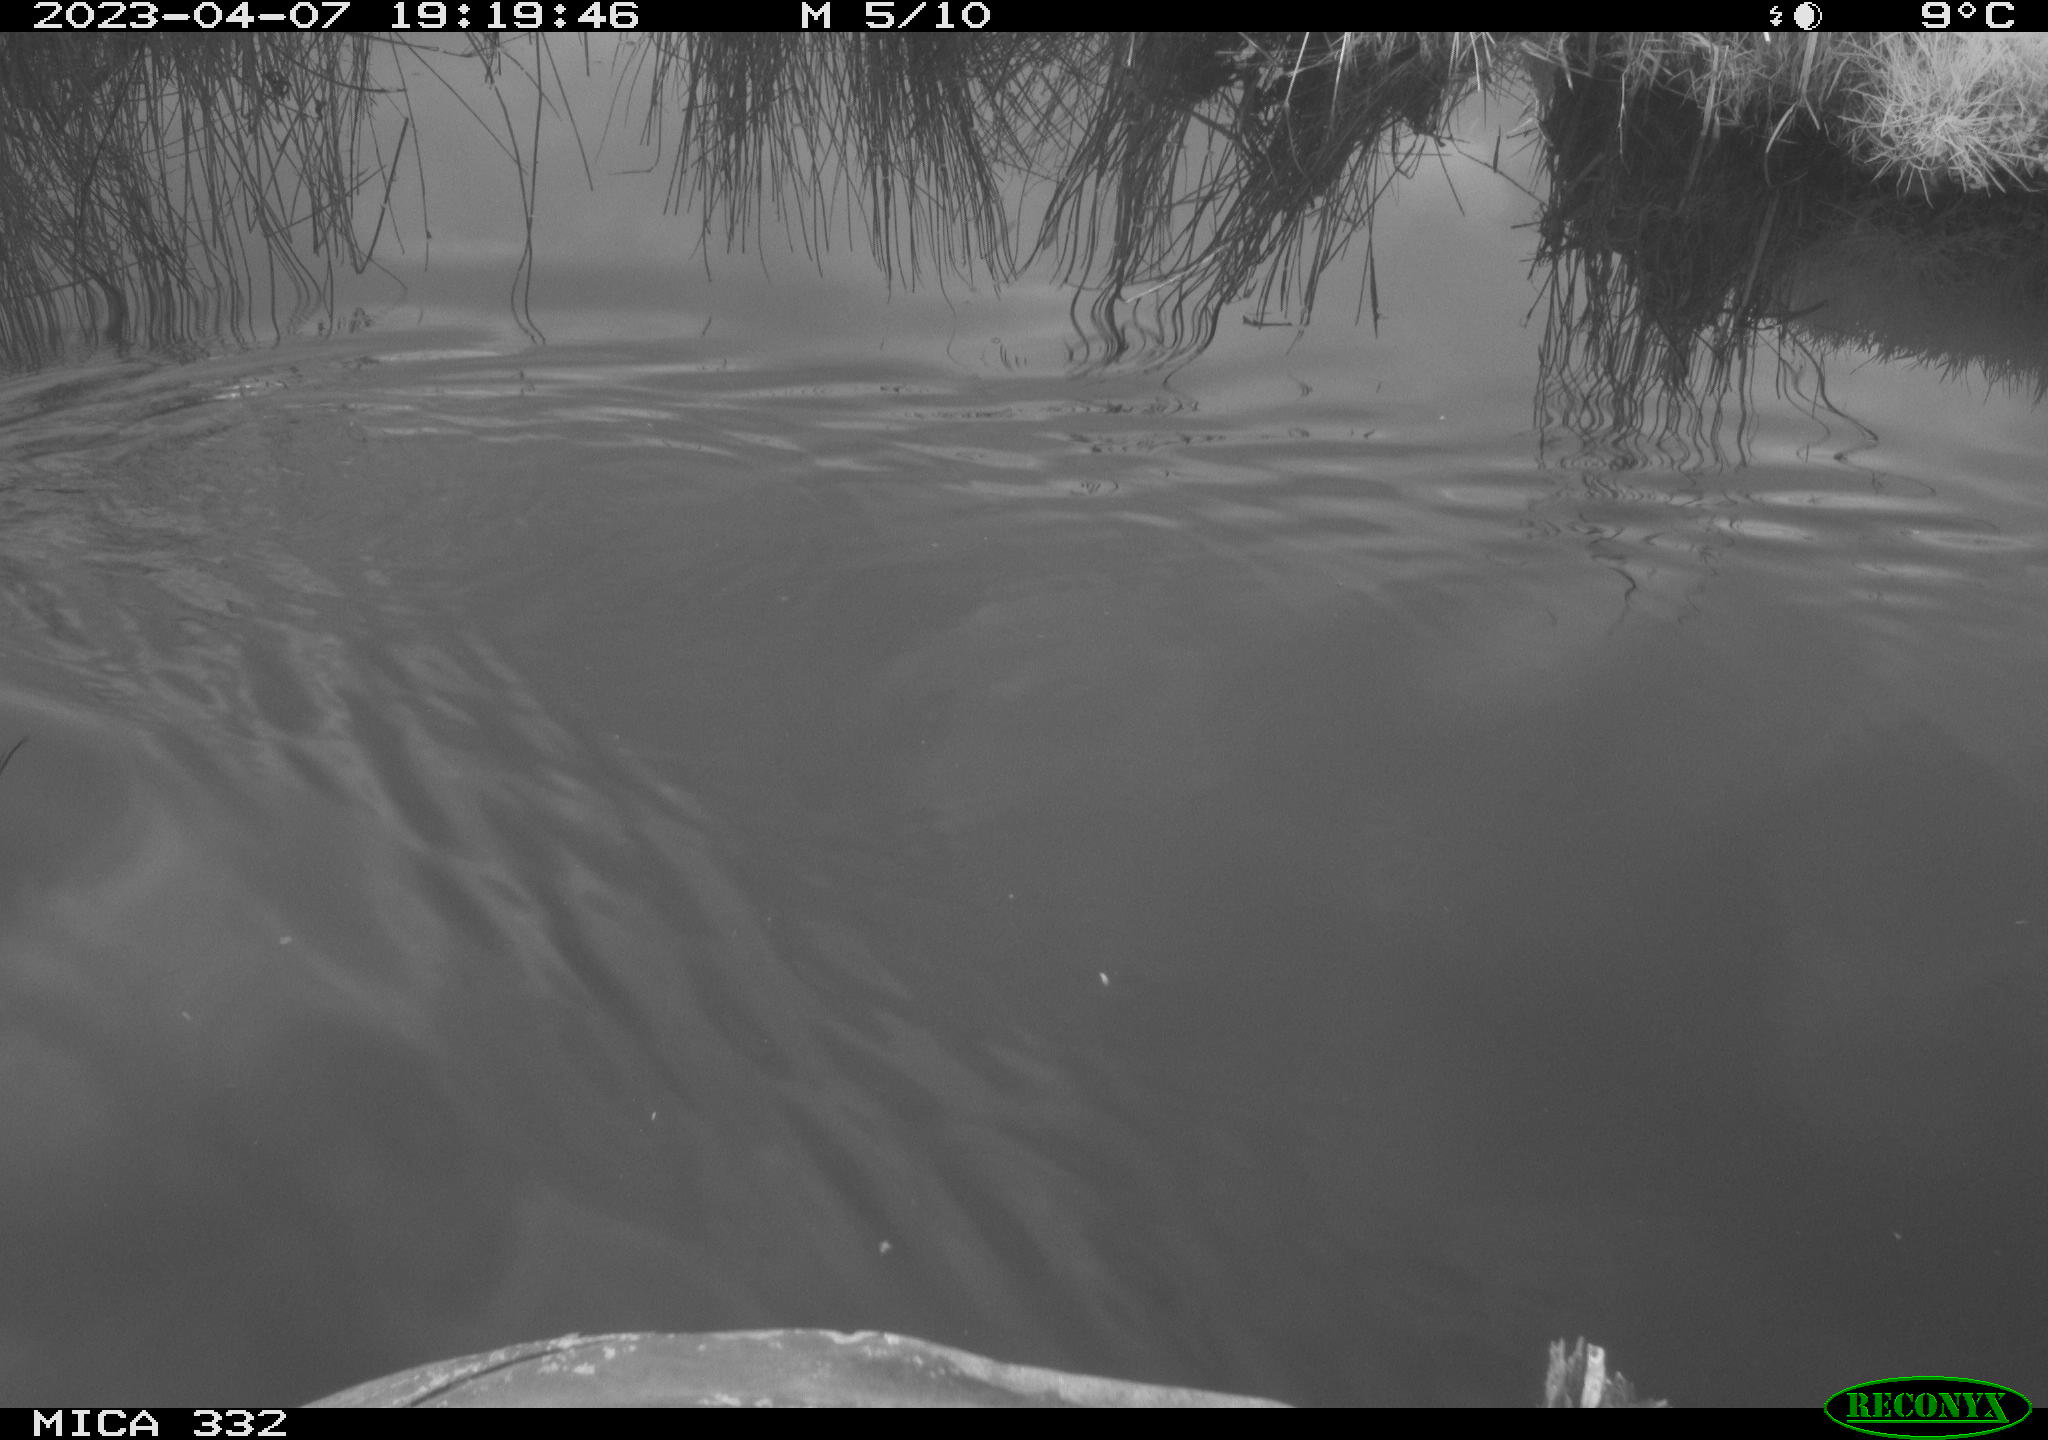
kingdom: Animalia
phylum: Chordata
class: Aves
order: Anseriformes
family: Anatidae
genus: Anas
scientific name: Anas platyrhynchos
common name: Mallard
